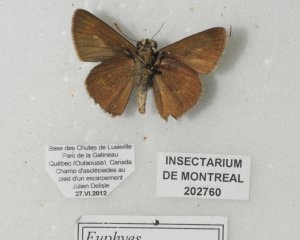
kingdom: Animalia
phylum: Arthropoda
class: Insecta
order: Lepidoptera
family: Hesperiidae
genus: Euphyes
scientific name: Euphyes vestris
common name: Dun Skipper
